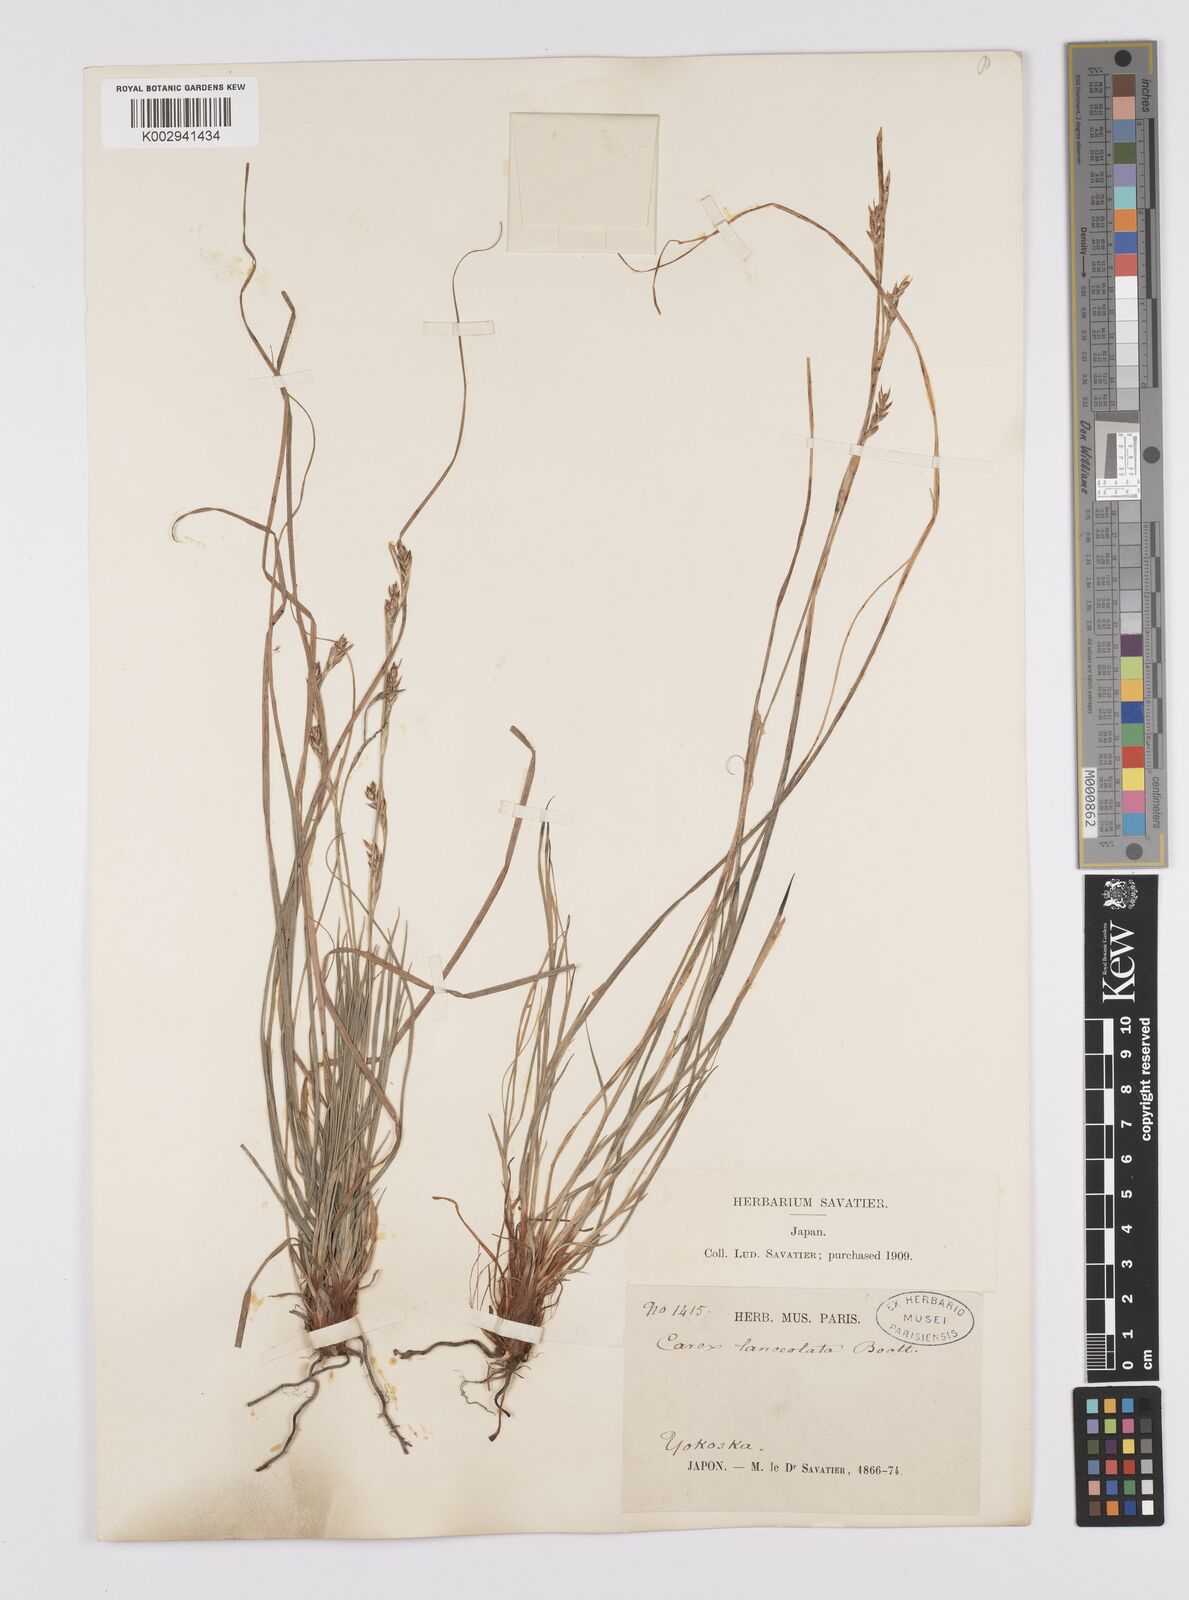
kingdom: Plantae
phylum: Tracheophyta
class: Liliopsida
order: Poales
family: Cyperaceae
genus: Carex
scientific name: Carex lanceolata
